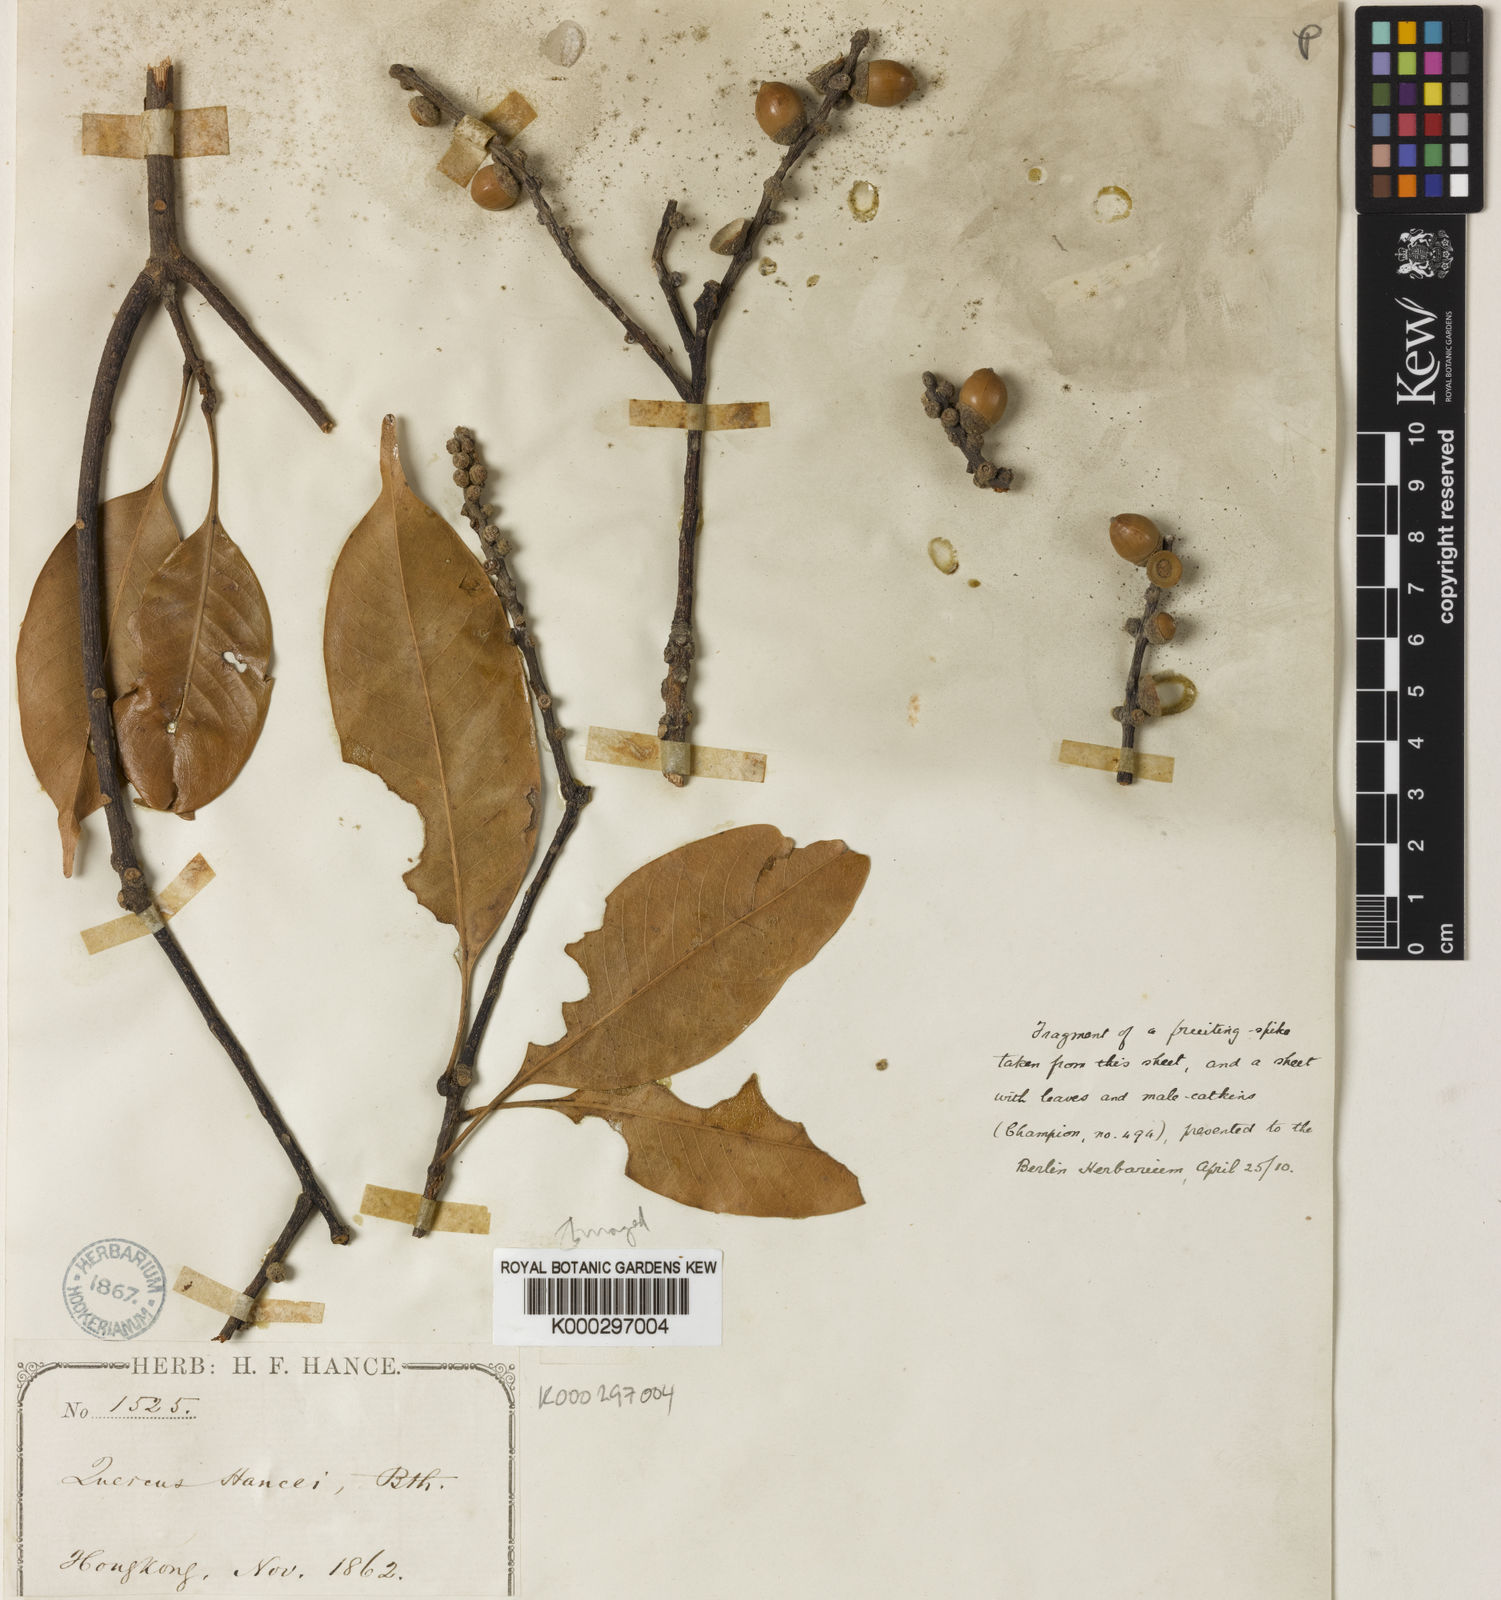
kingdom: Plantae
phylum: Tracheophyta
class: Magnoliopsida
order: Fagales
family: Fagaceae
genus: Lithocarpus
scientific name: Lithocarpus hancei
